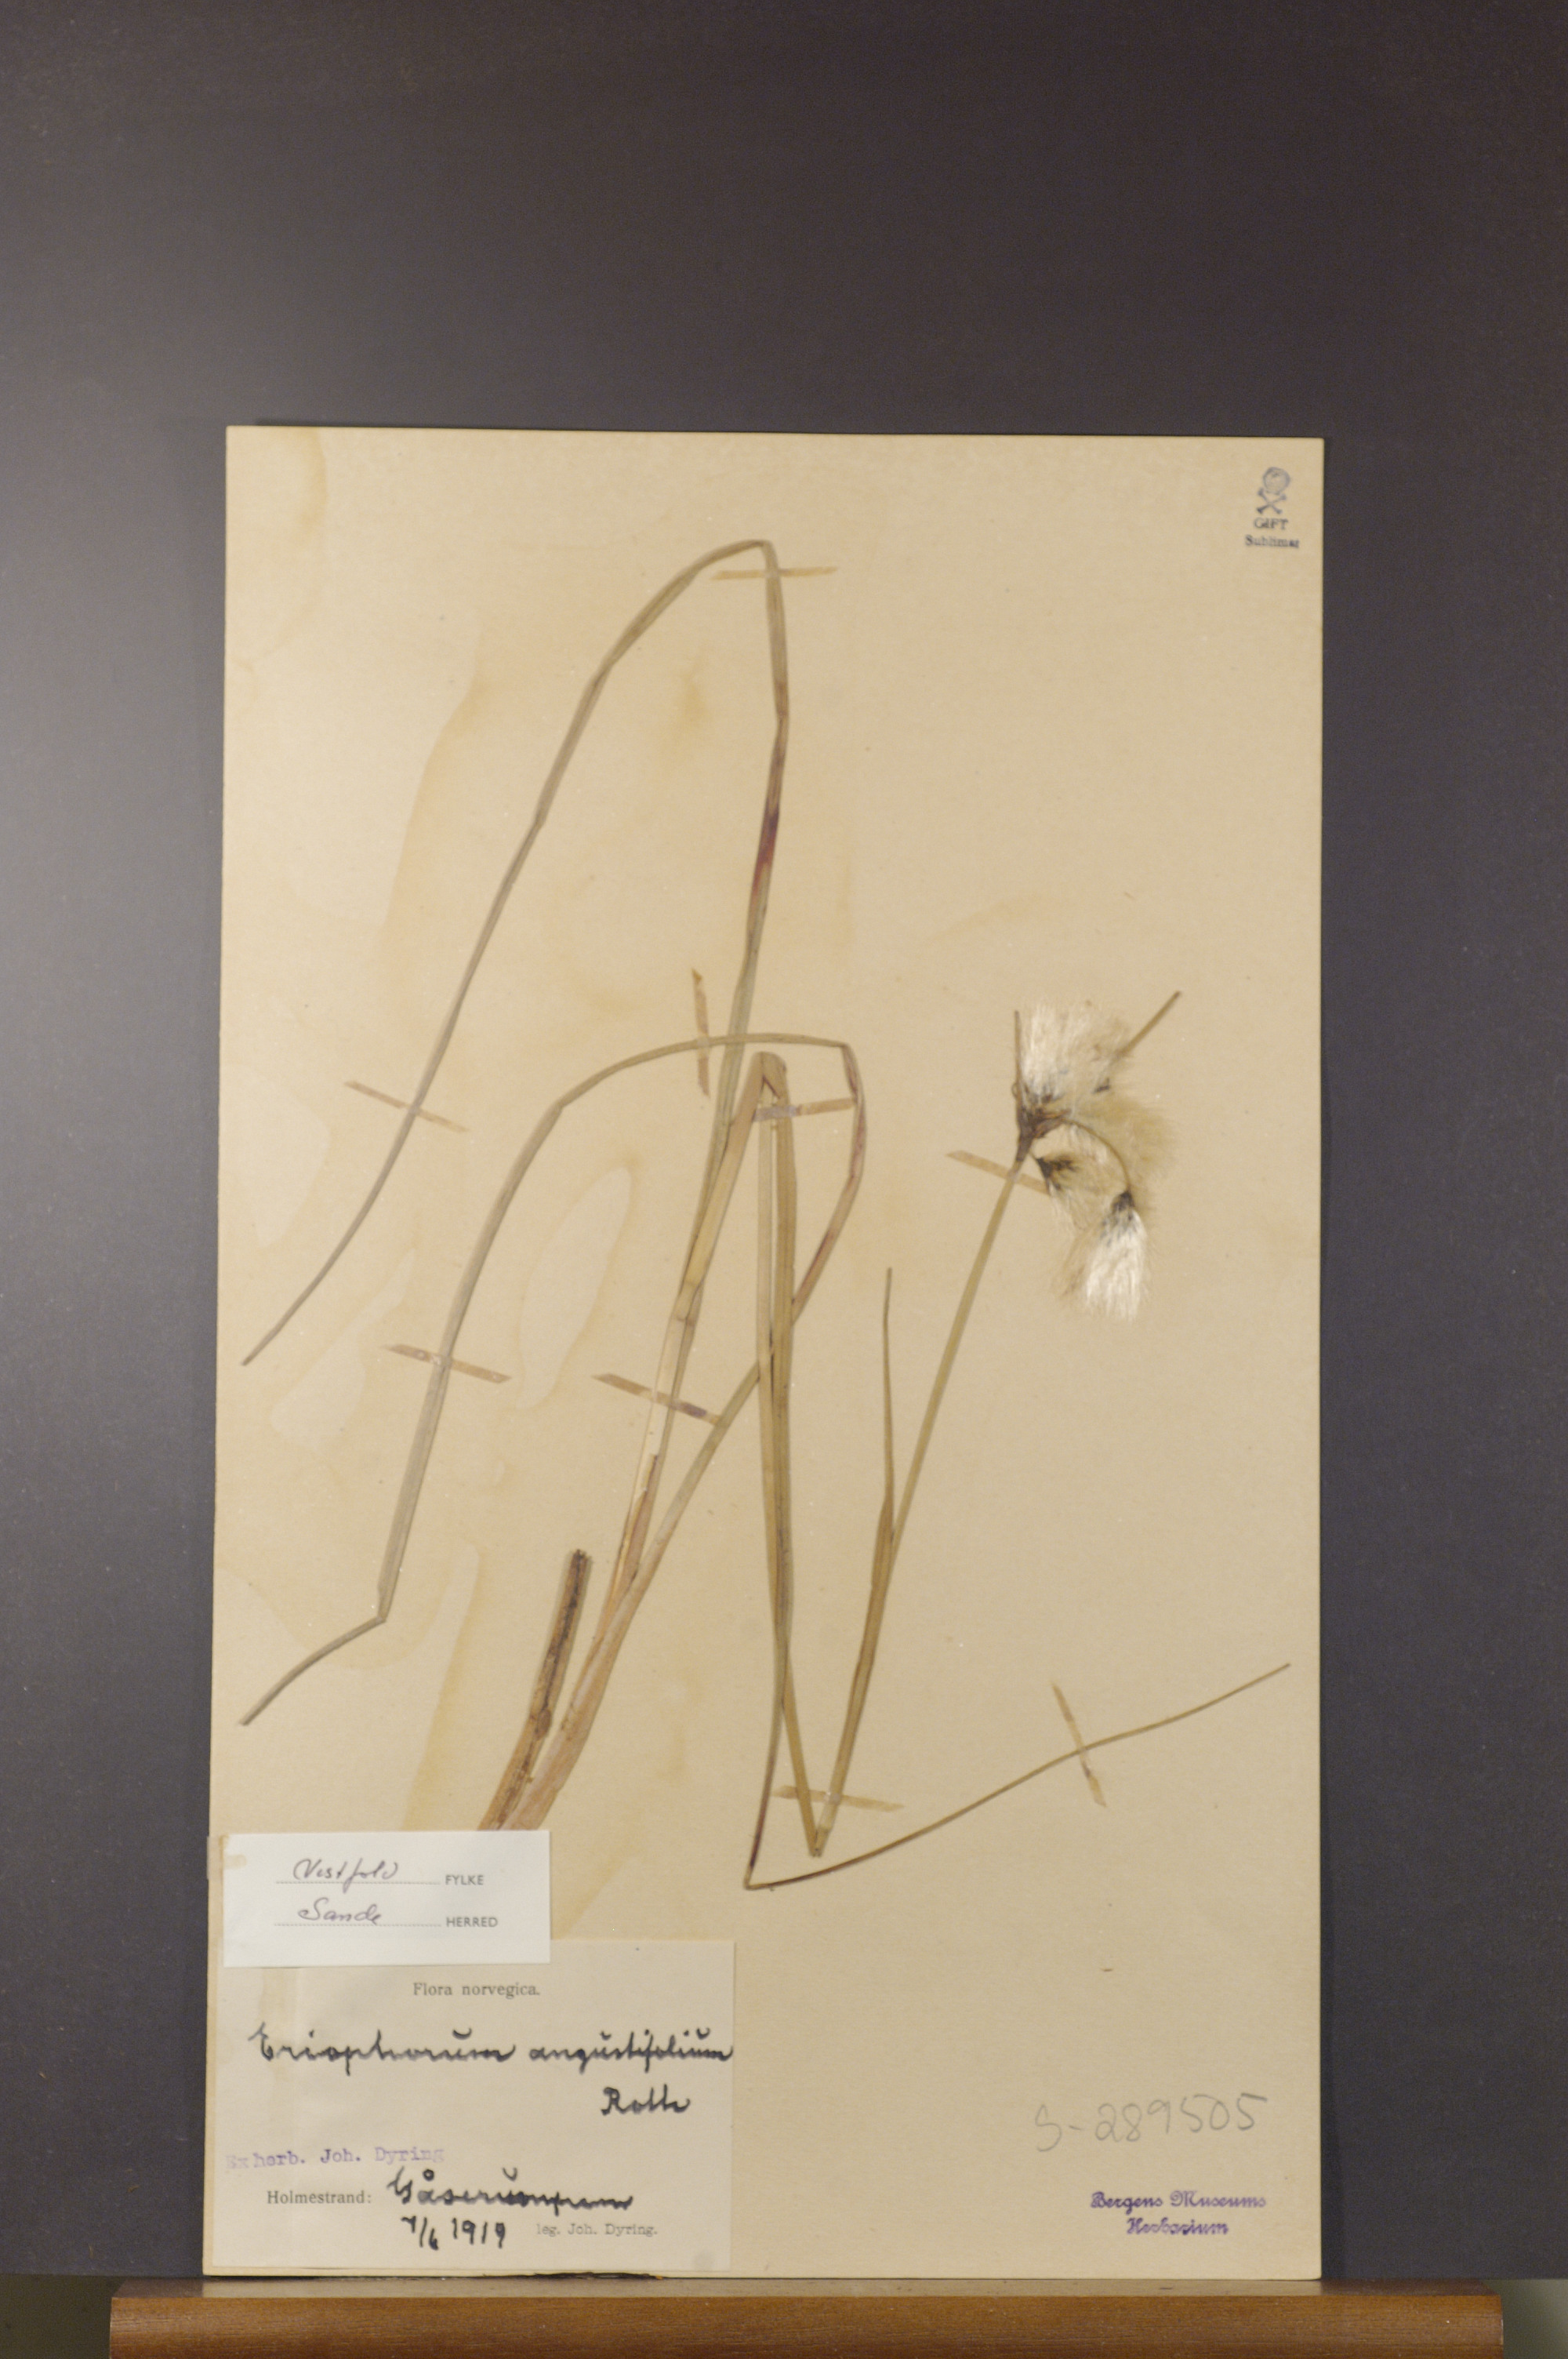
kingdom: Plantae
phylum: Tracheophyta
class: Liliopsida
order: Poales
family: Cyperaceae
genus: Eriophorum
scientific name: Eriophorum angustifolium
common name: Common cottongrass
